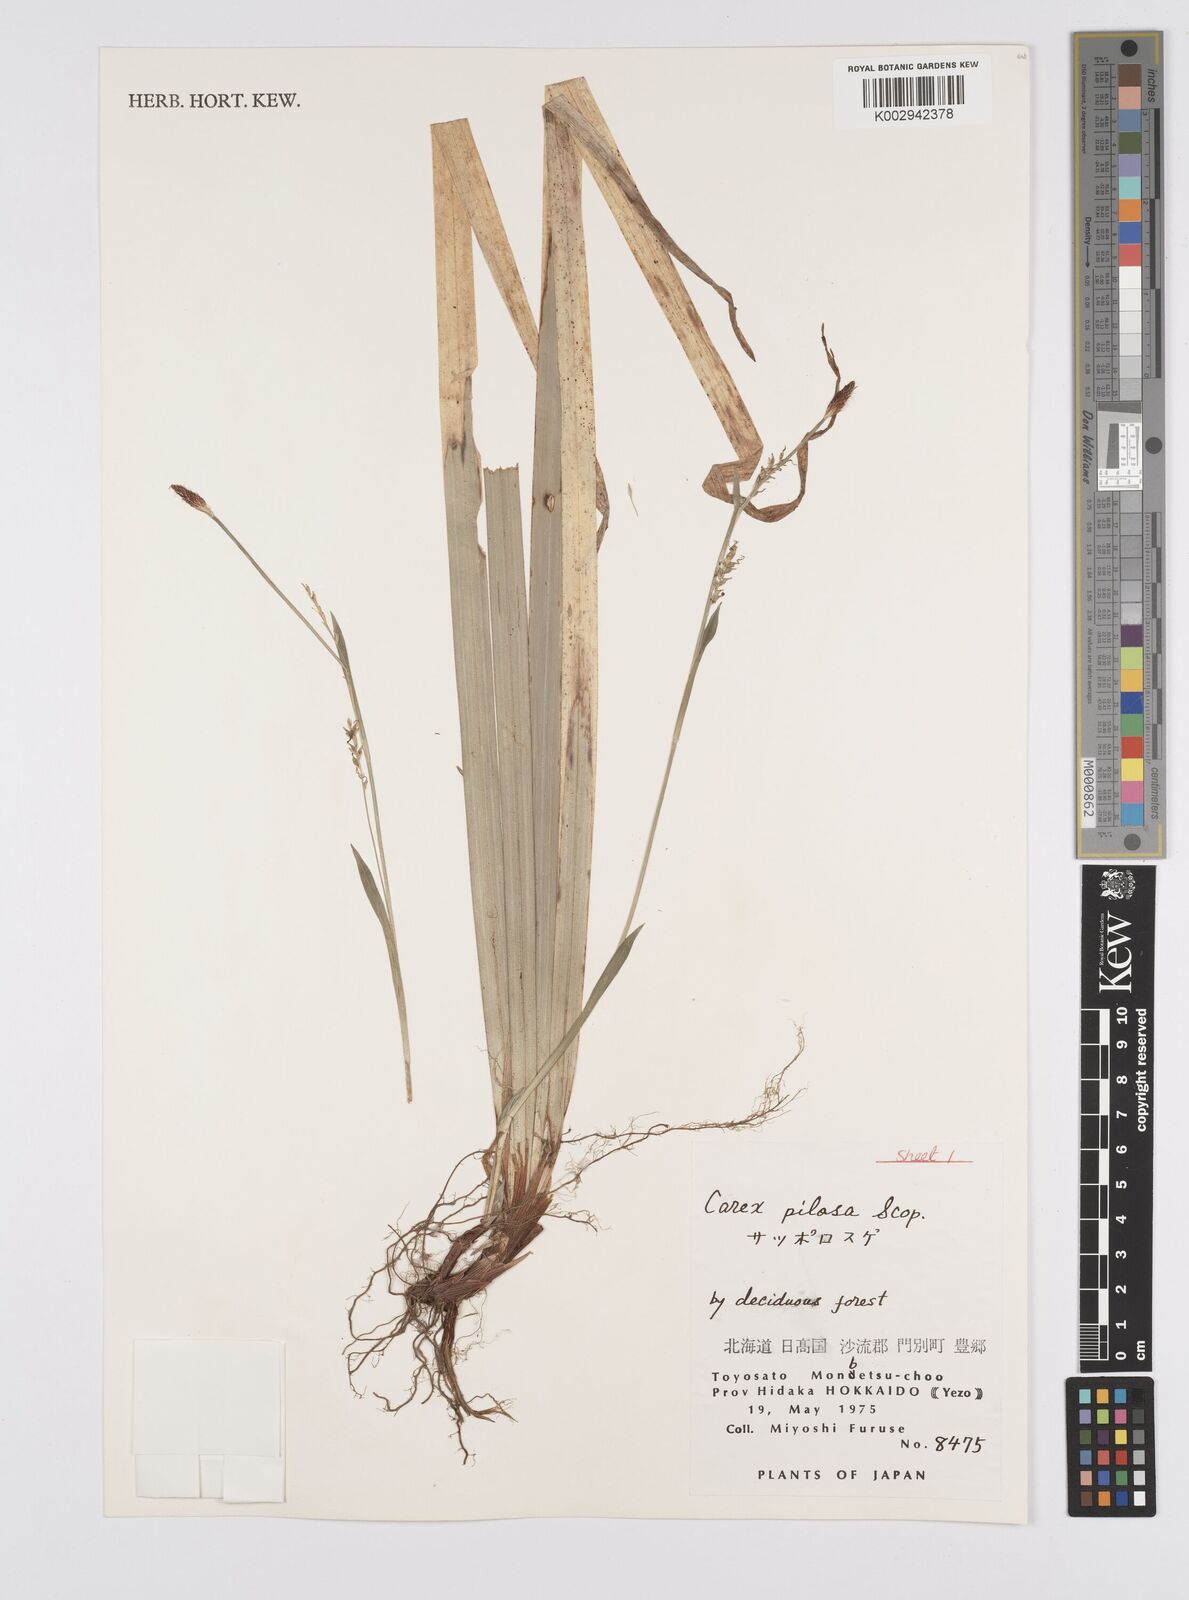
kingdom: Plantae
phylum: Tracheophyta
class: Liliopsida
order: Poales
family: Cyperaceae
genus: Carex
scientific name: Carex pilosa
